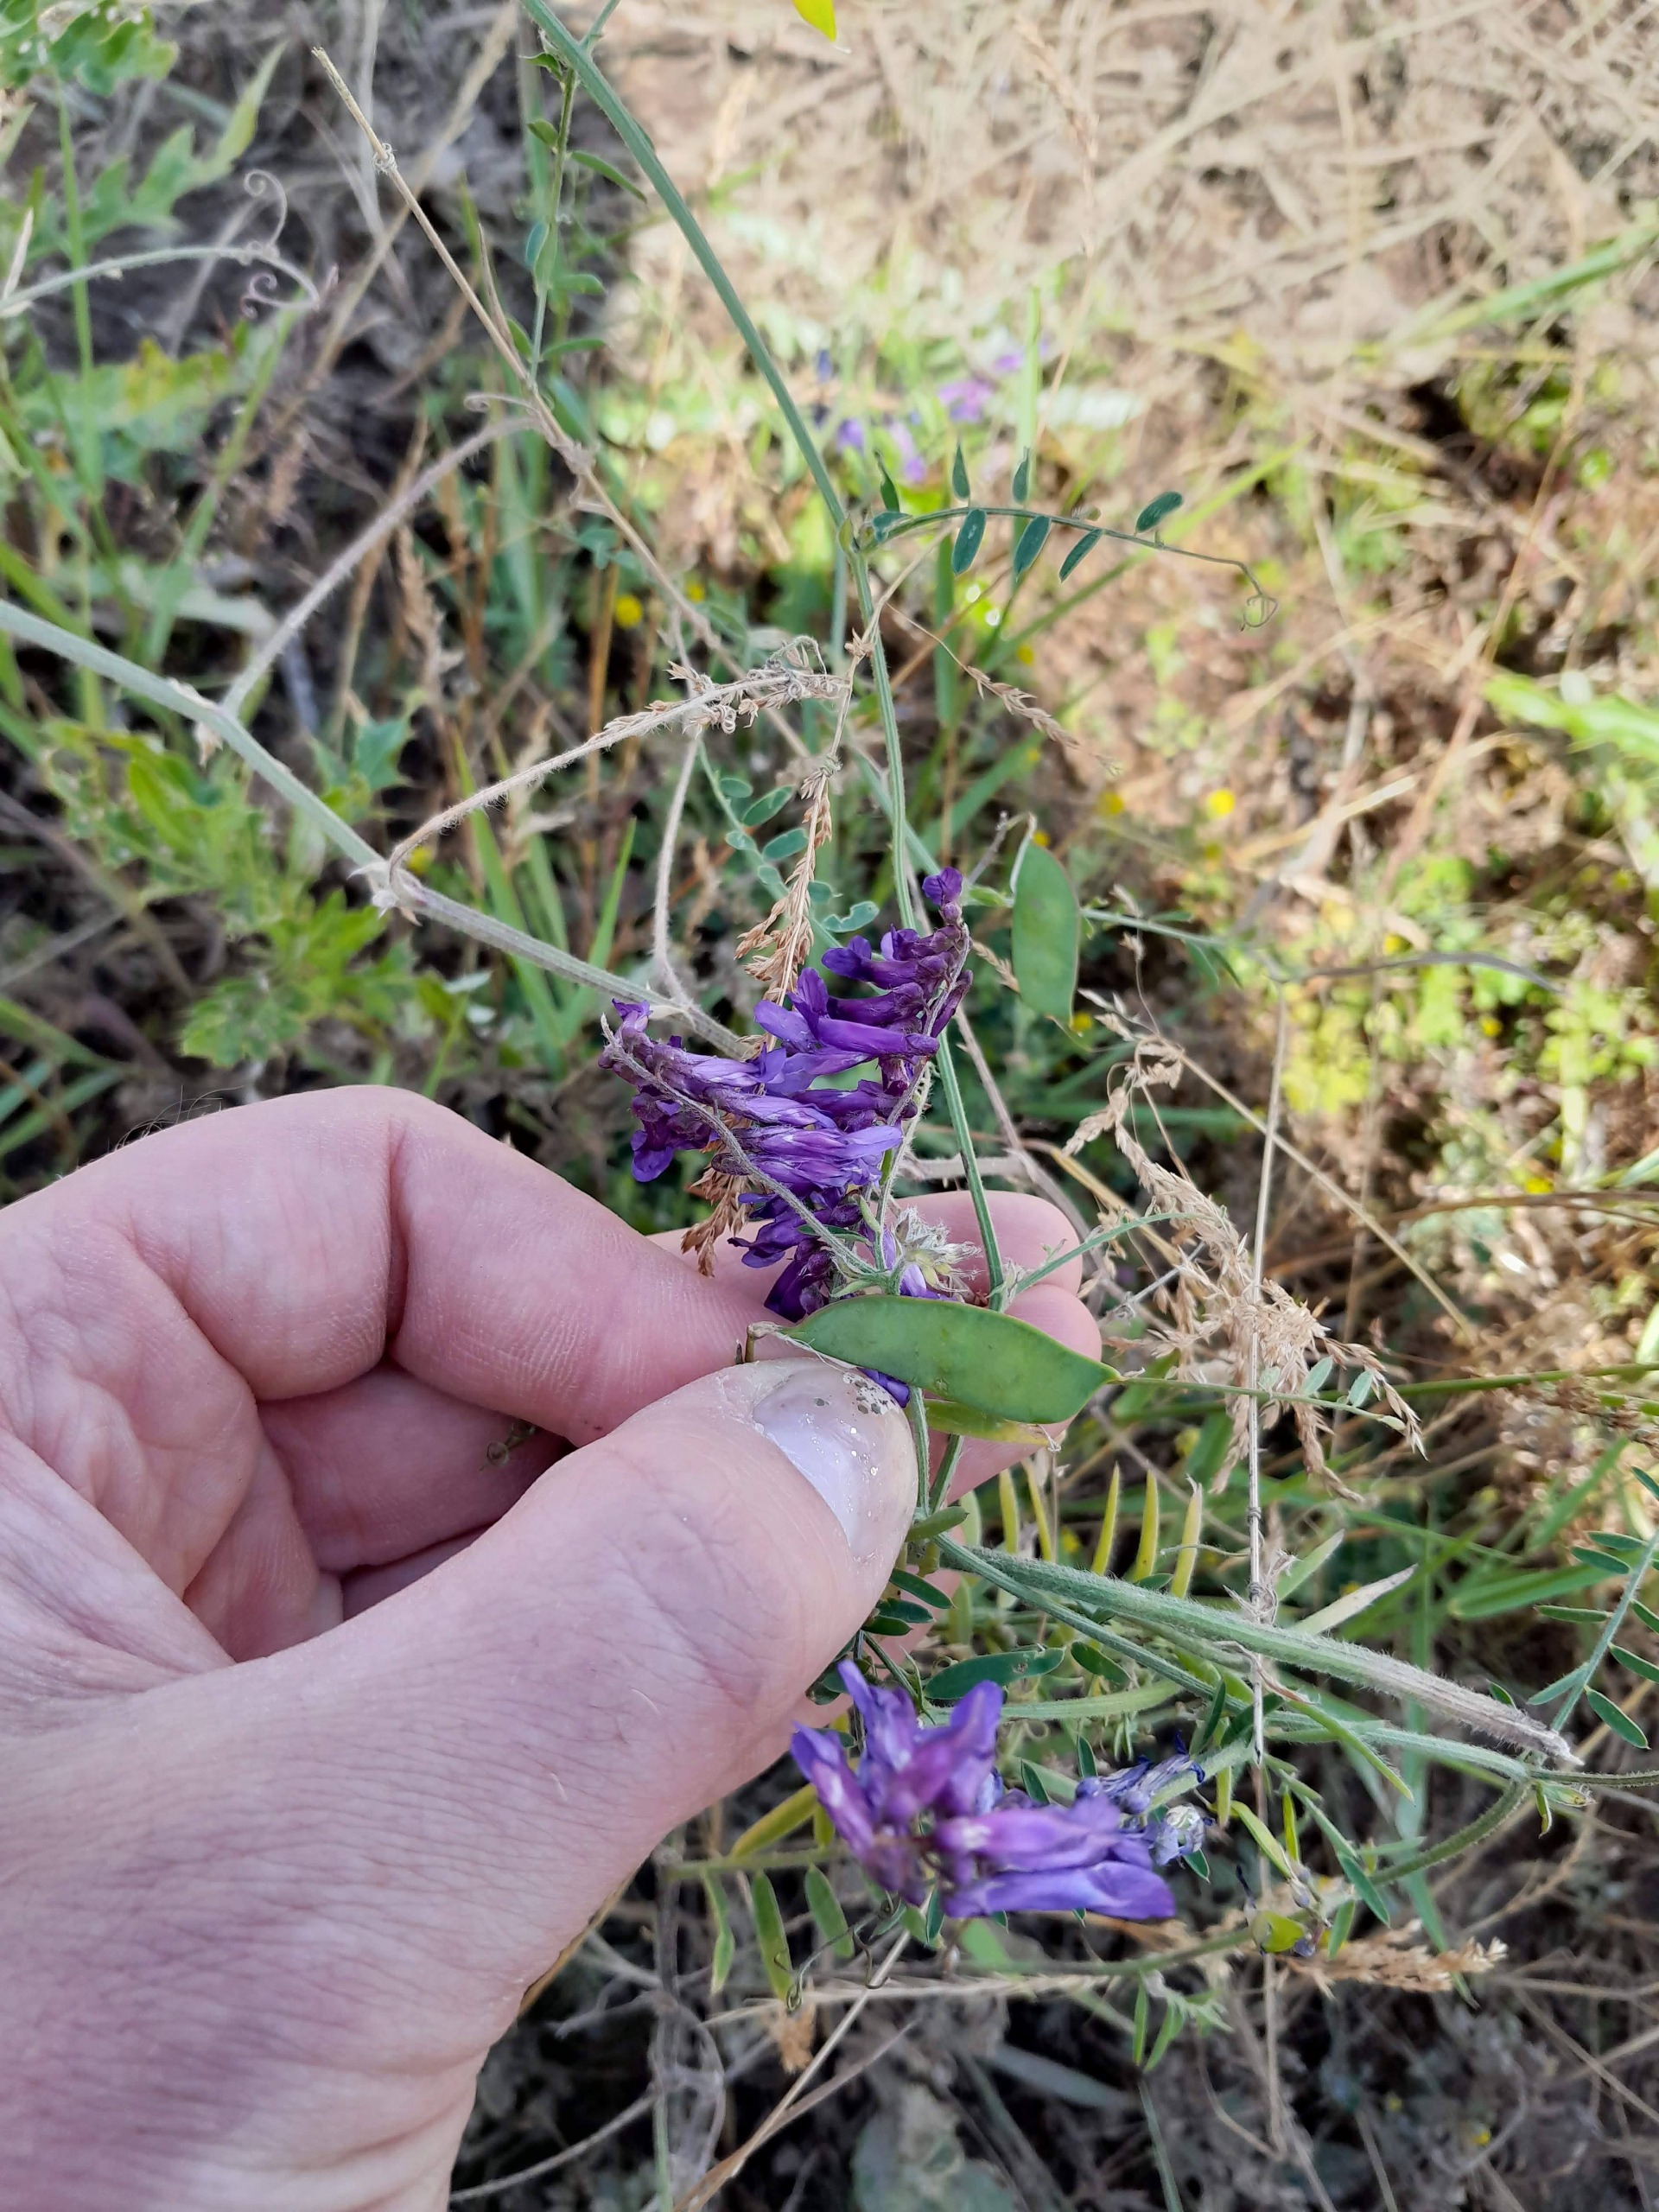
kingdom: Plantae
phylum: Tracheophyta
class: Magnoliopsida
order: Fabales
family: Fabaceae
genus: Vicia
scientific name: Vicia villosa
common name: Sand-vikke
